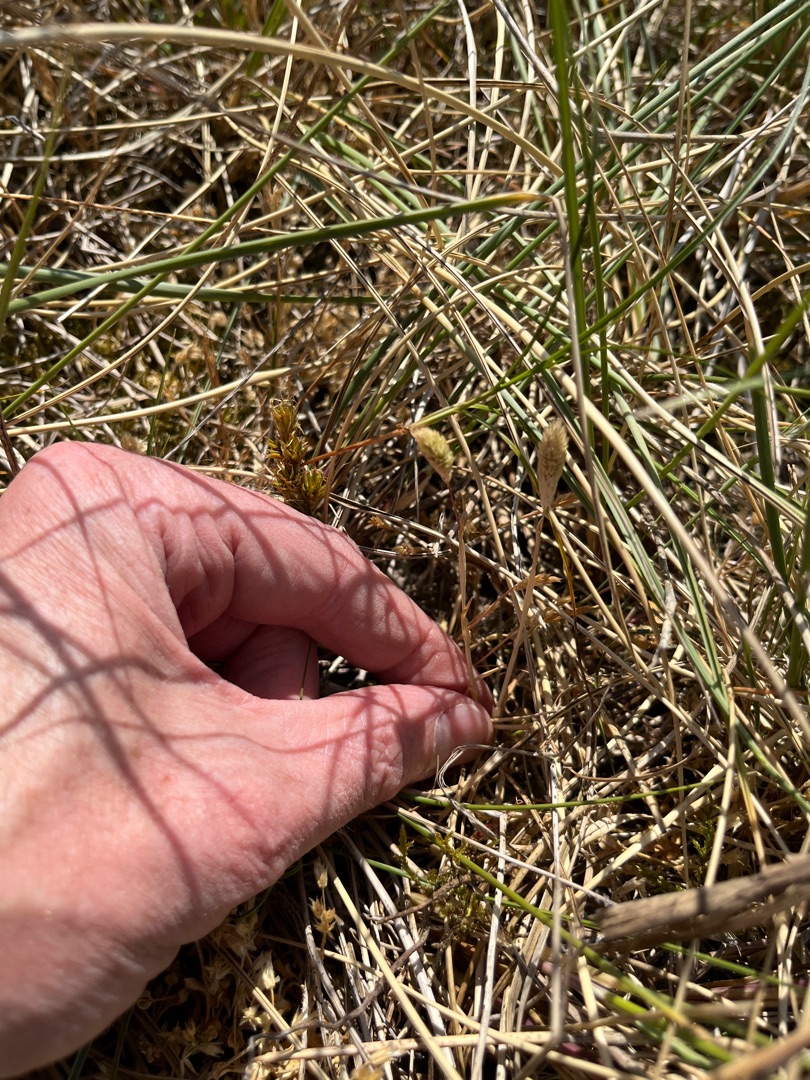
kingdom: Plantae
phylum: Tracheophyta
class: Liliopsida
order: Poales
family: Poaceae
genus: Phleum
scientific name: Phleum arenarium
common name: Sand-rottehale
